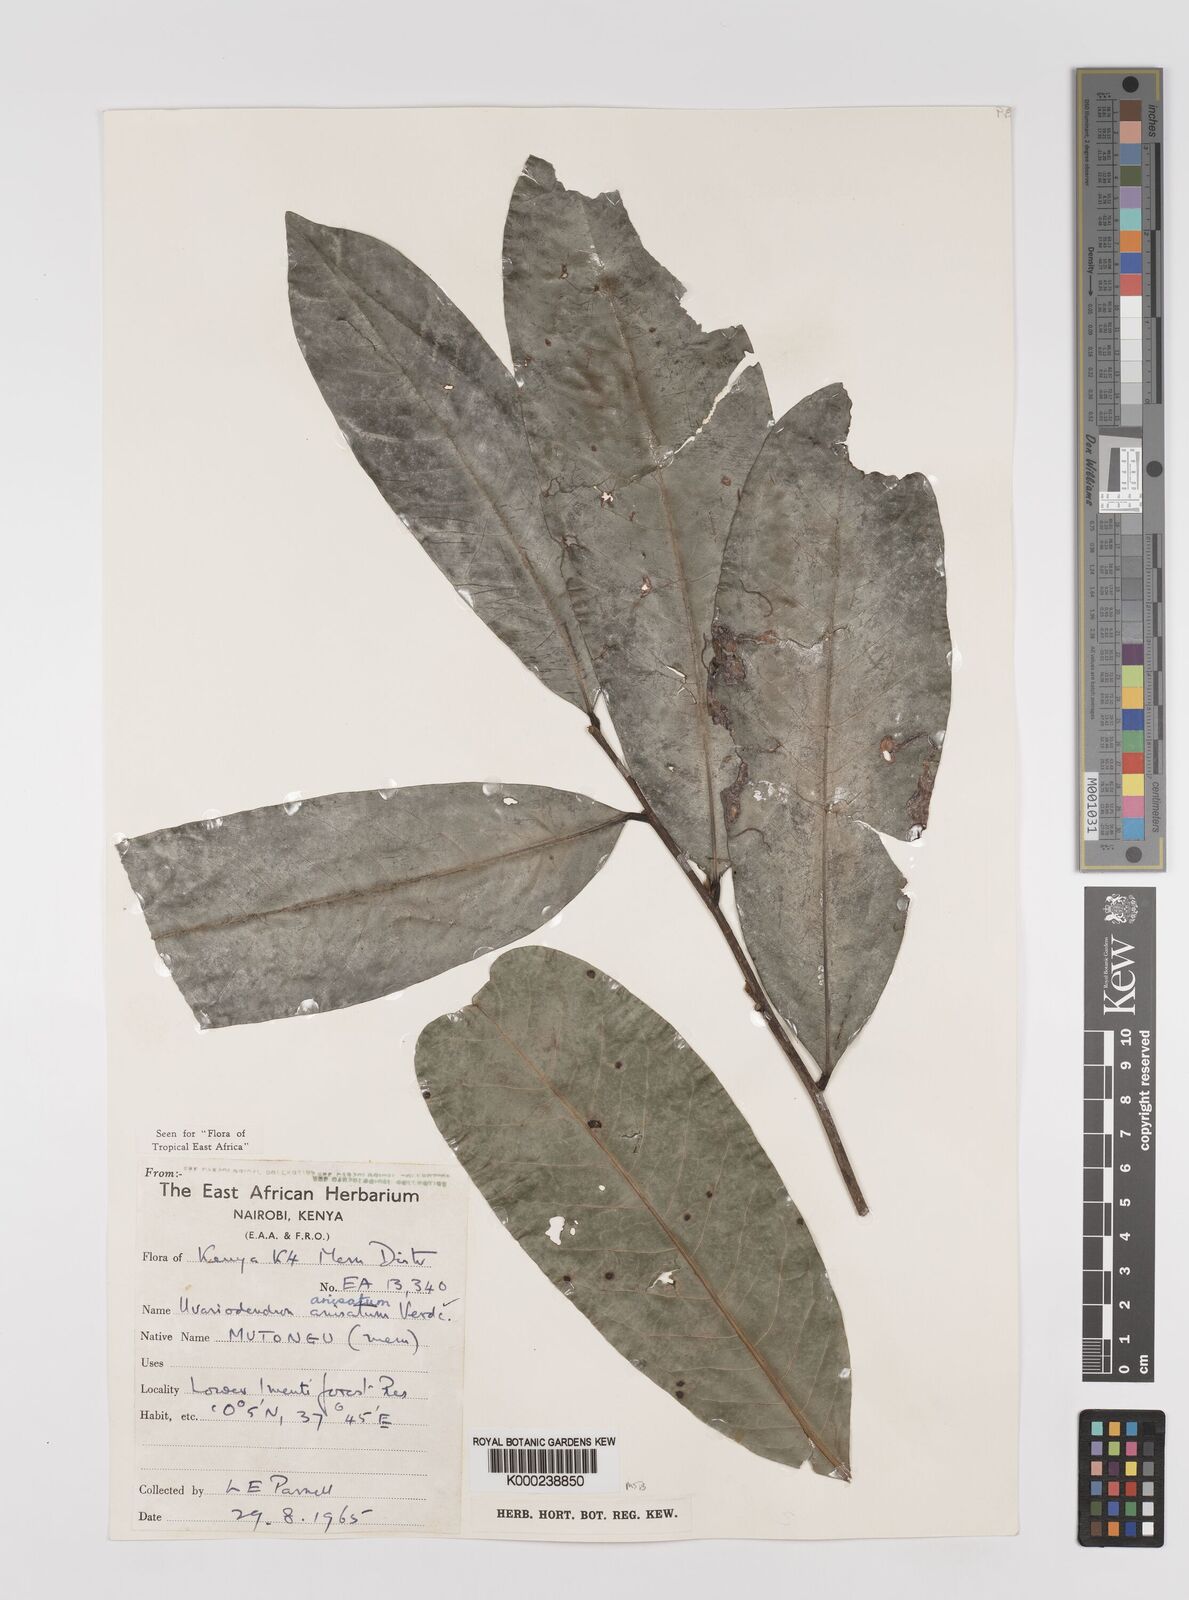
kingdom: Plantae
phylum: Tracheophyta
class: Magnoliopsida
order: Magnoliales
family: Annonaceae
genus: Uvariodendron
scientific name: Uvariodendron anisatum
